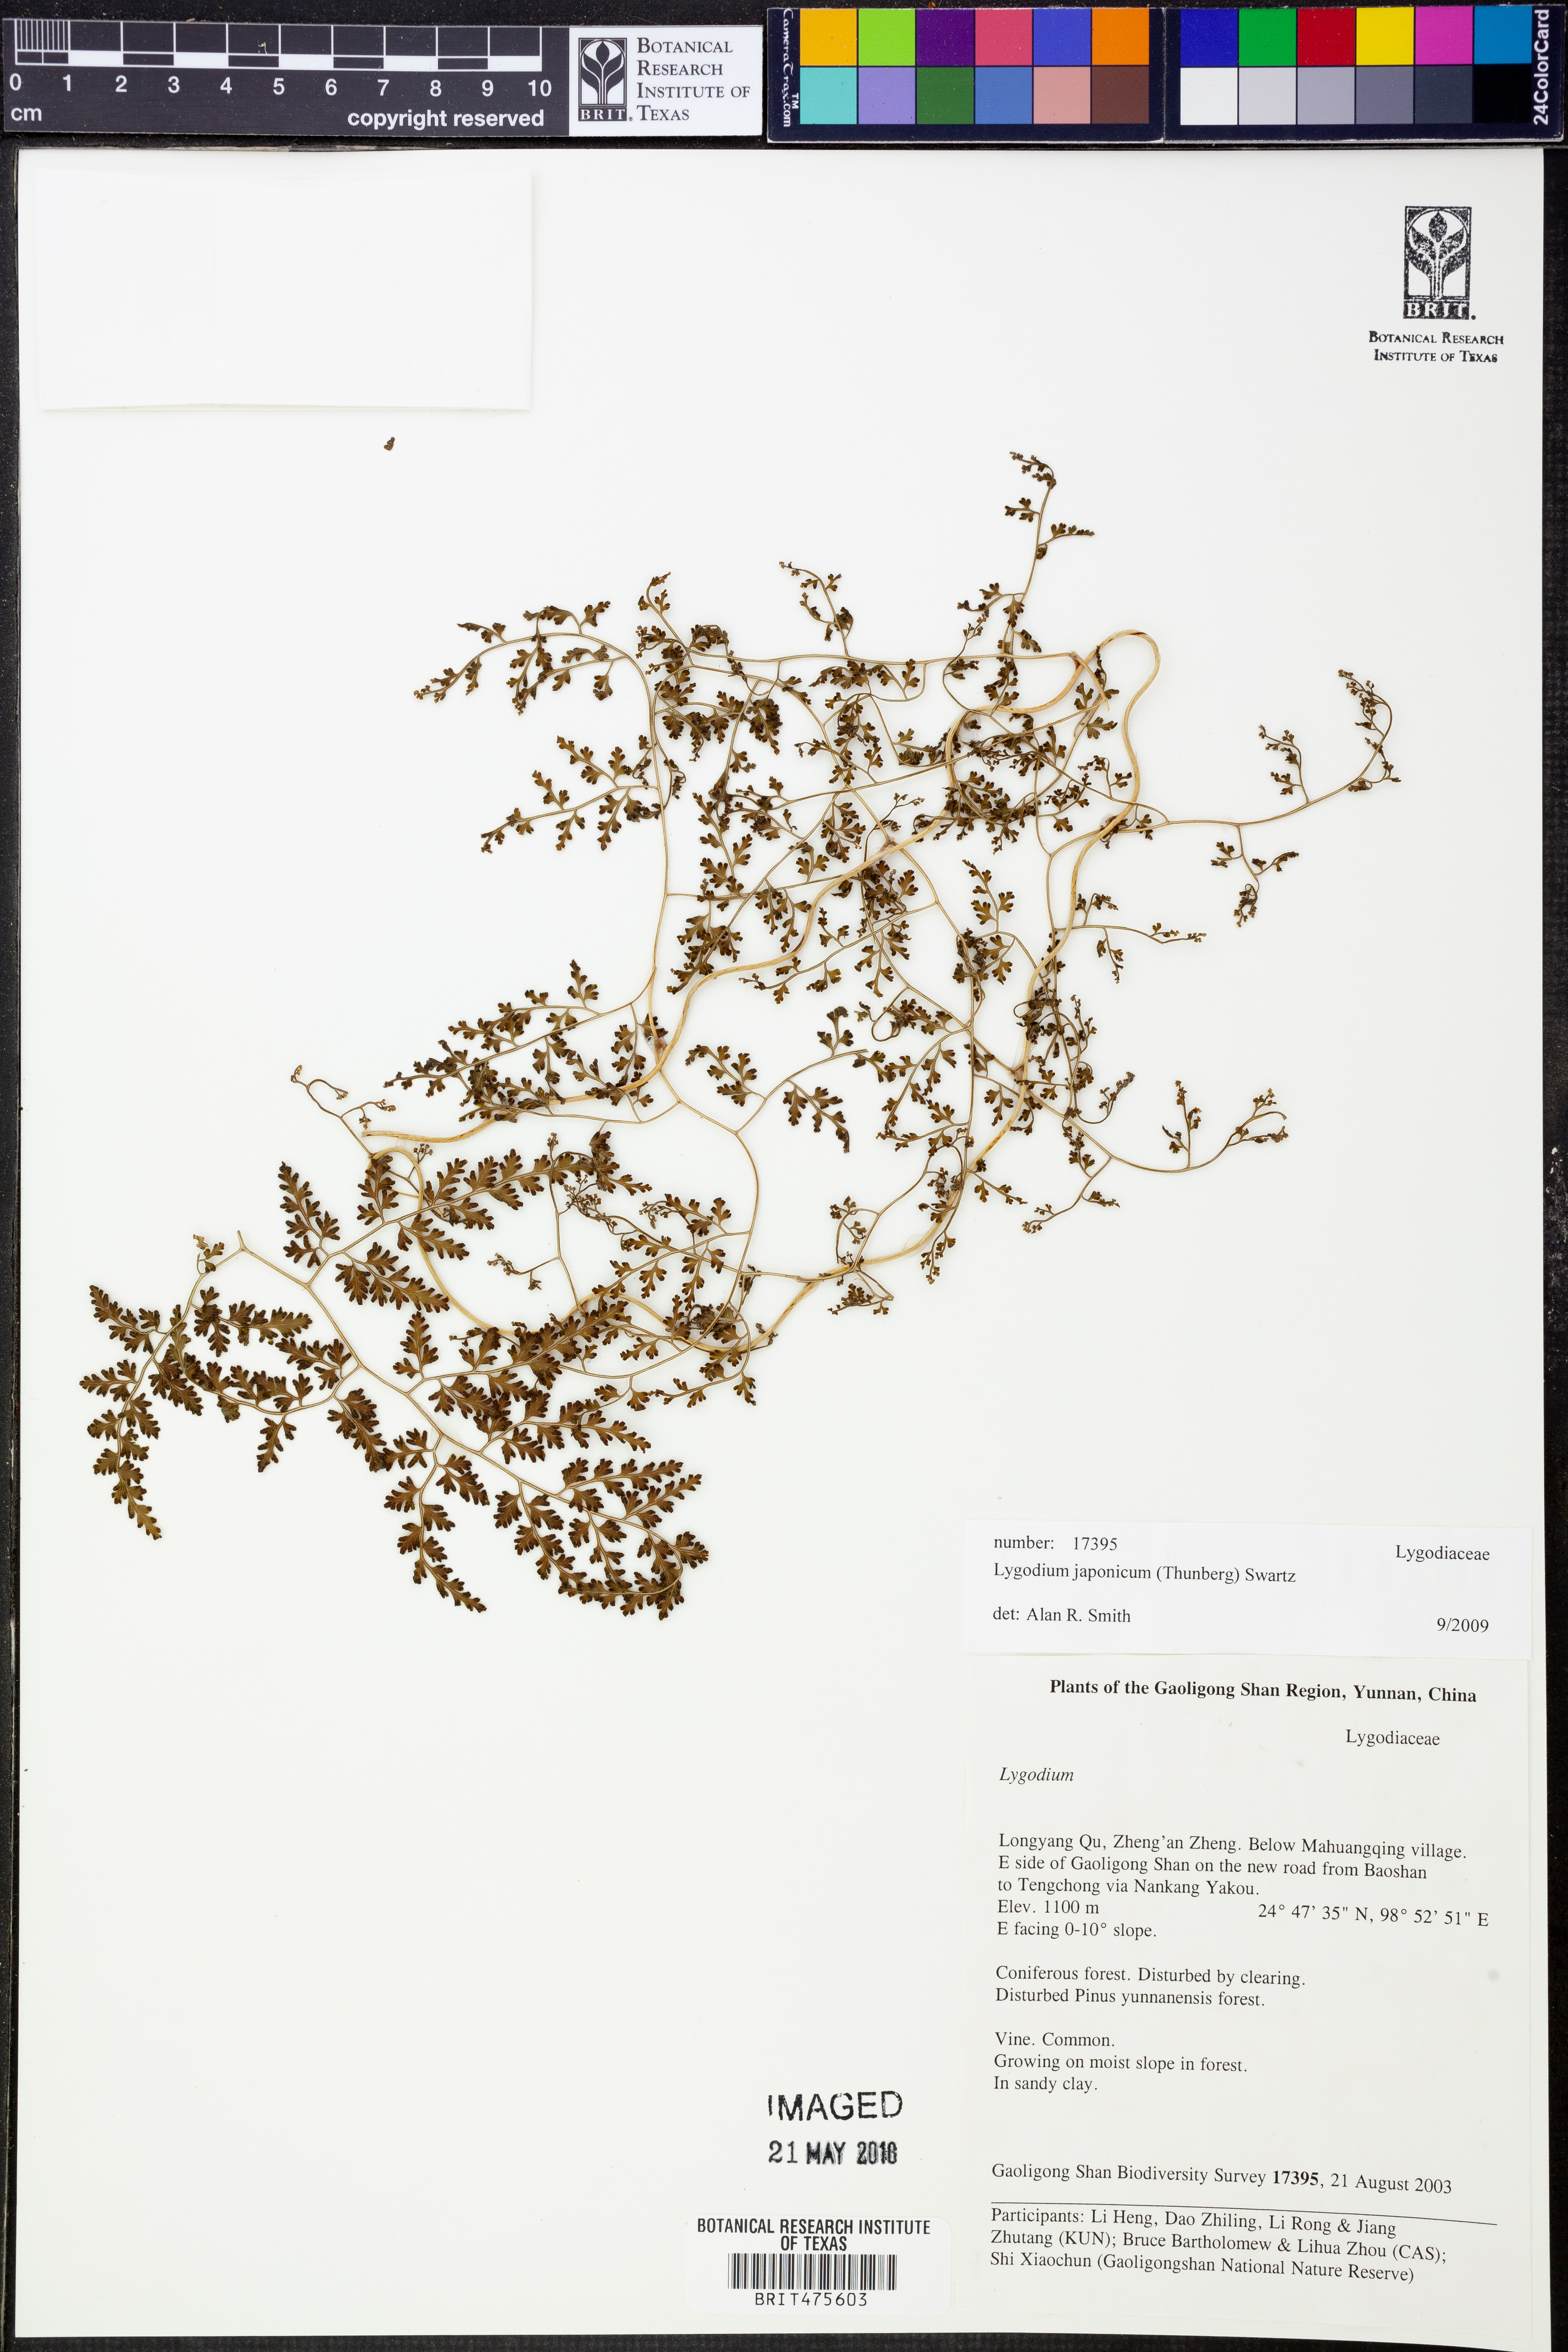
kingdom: Plantae
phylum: Tracheophyta
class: Polypodiopsida
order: Schizaeales
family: Lygodiaceae
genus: Lygodium
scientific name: Lygodium japonicum
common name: Japanese climbing fern
